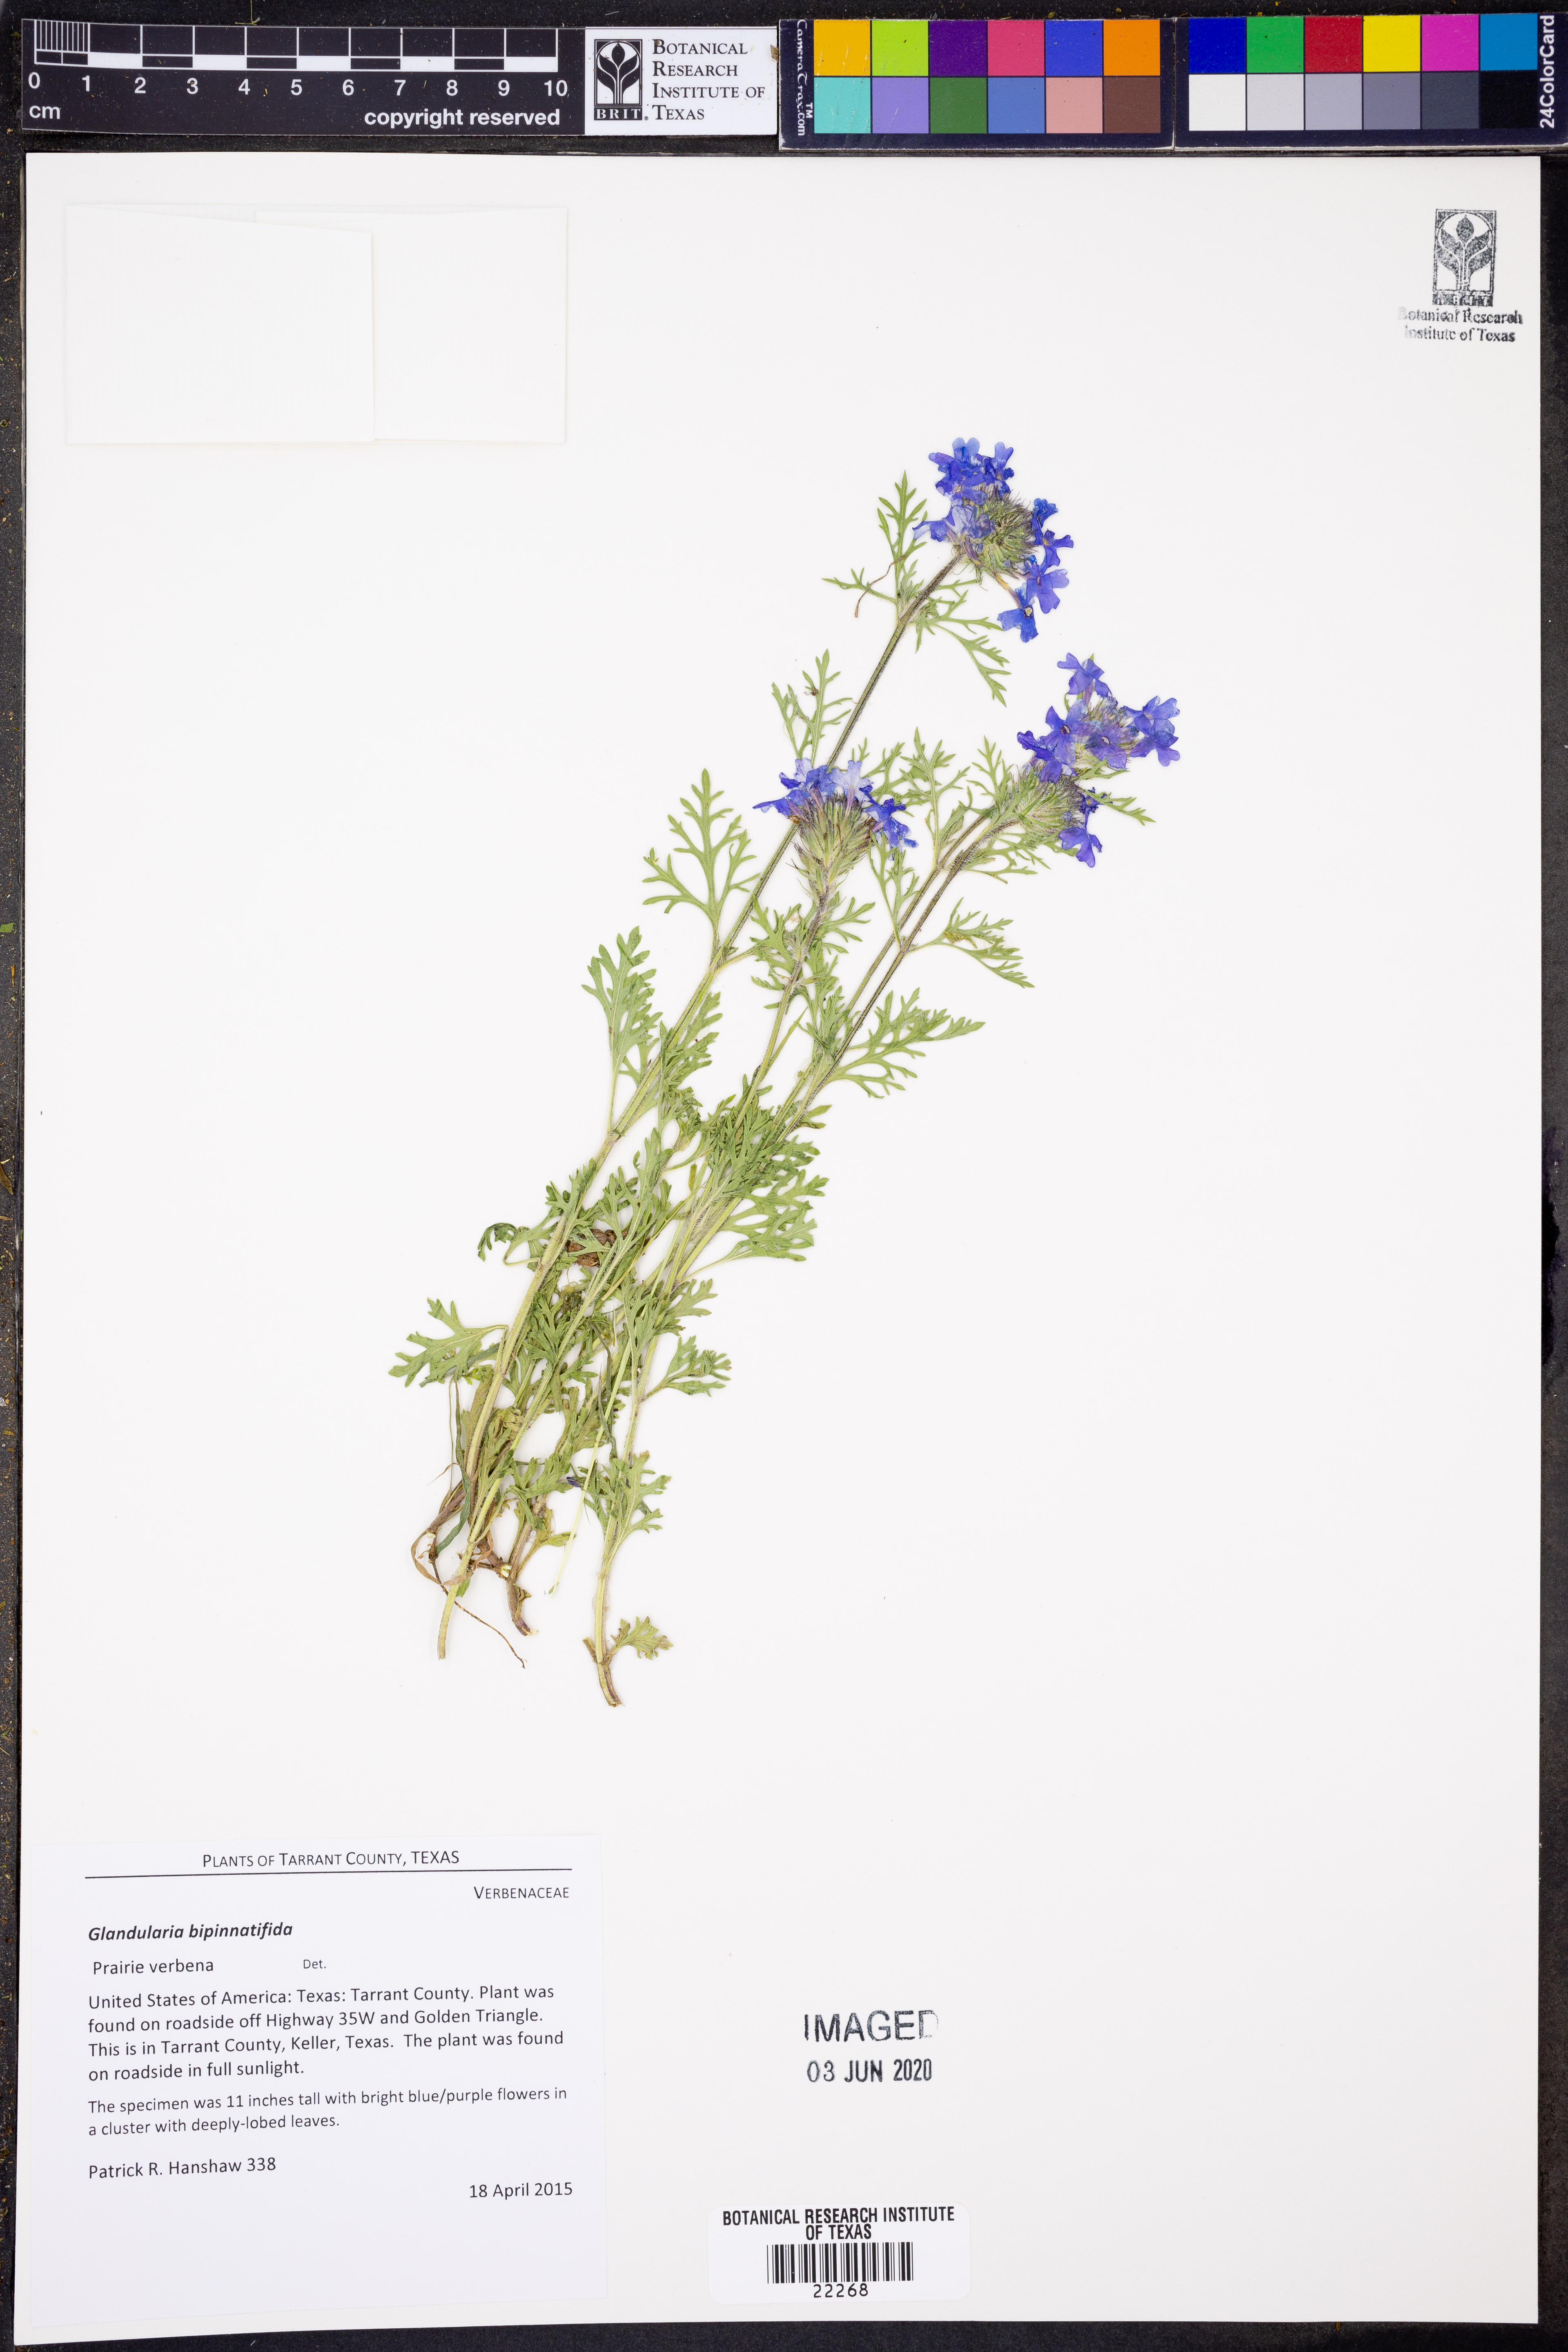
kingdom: Plantae
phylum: Tracheophyta
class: Magnoliopsida
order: Lamiales
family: Verbenaceae
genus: Verbena
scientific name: Verbena bipinnatifida
